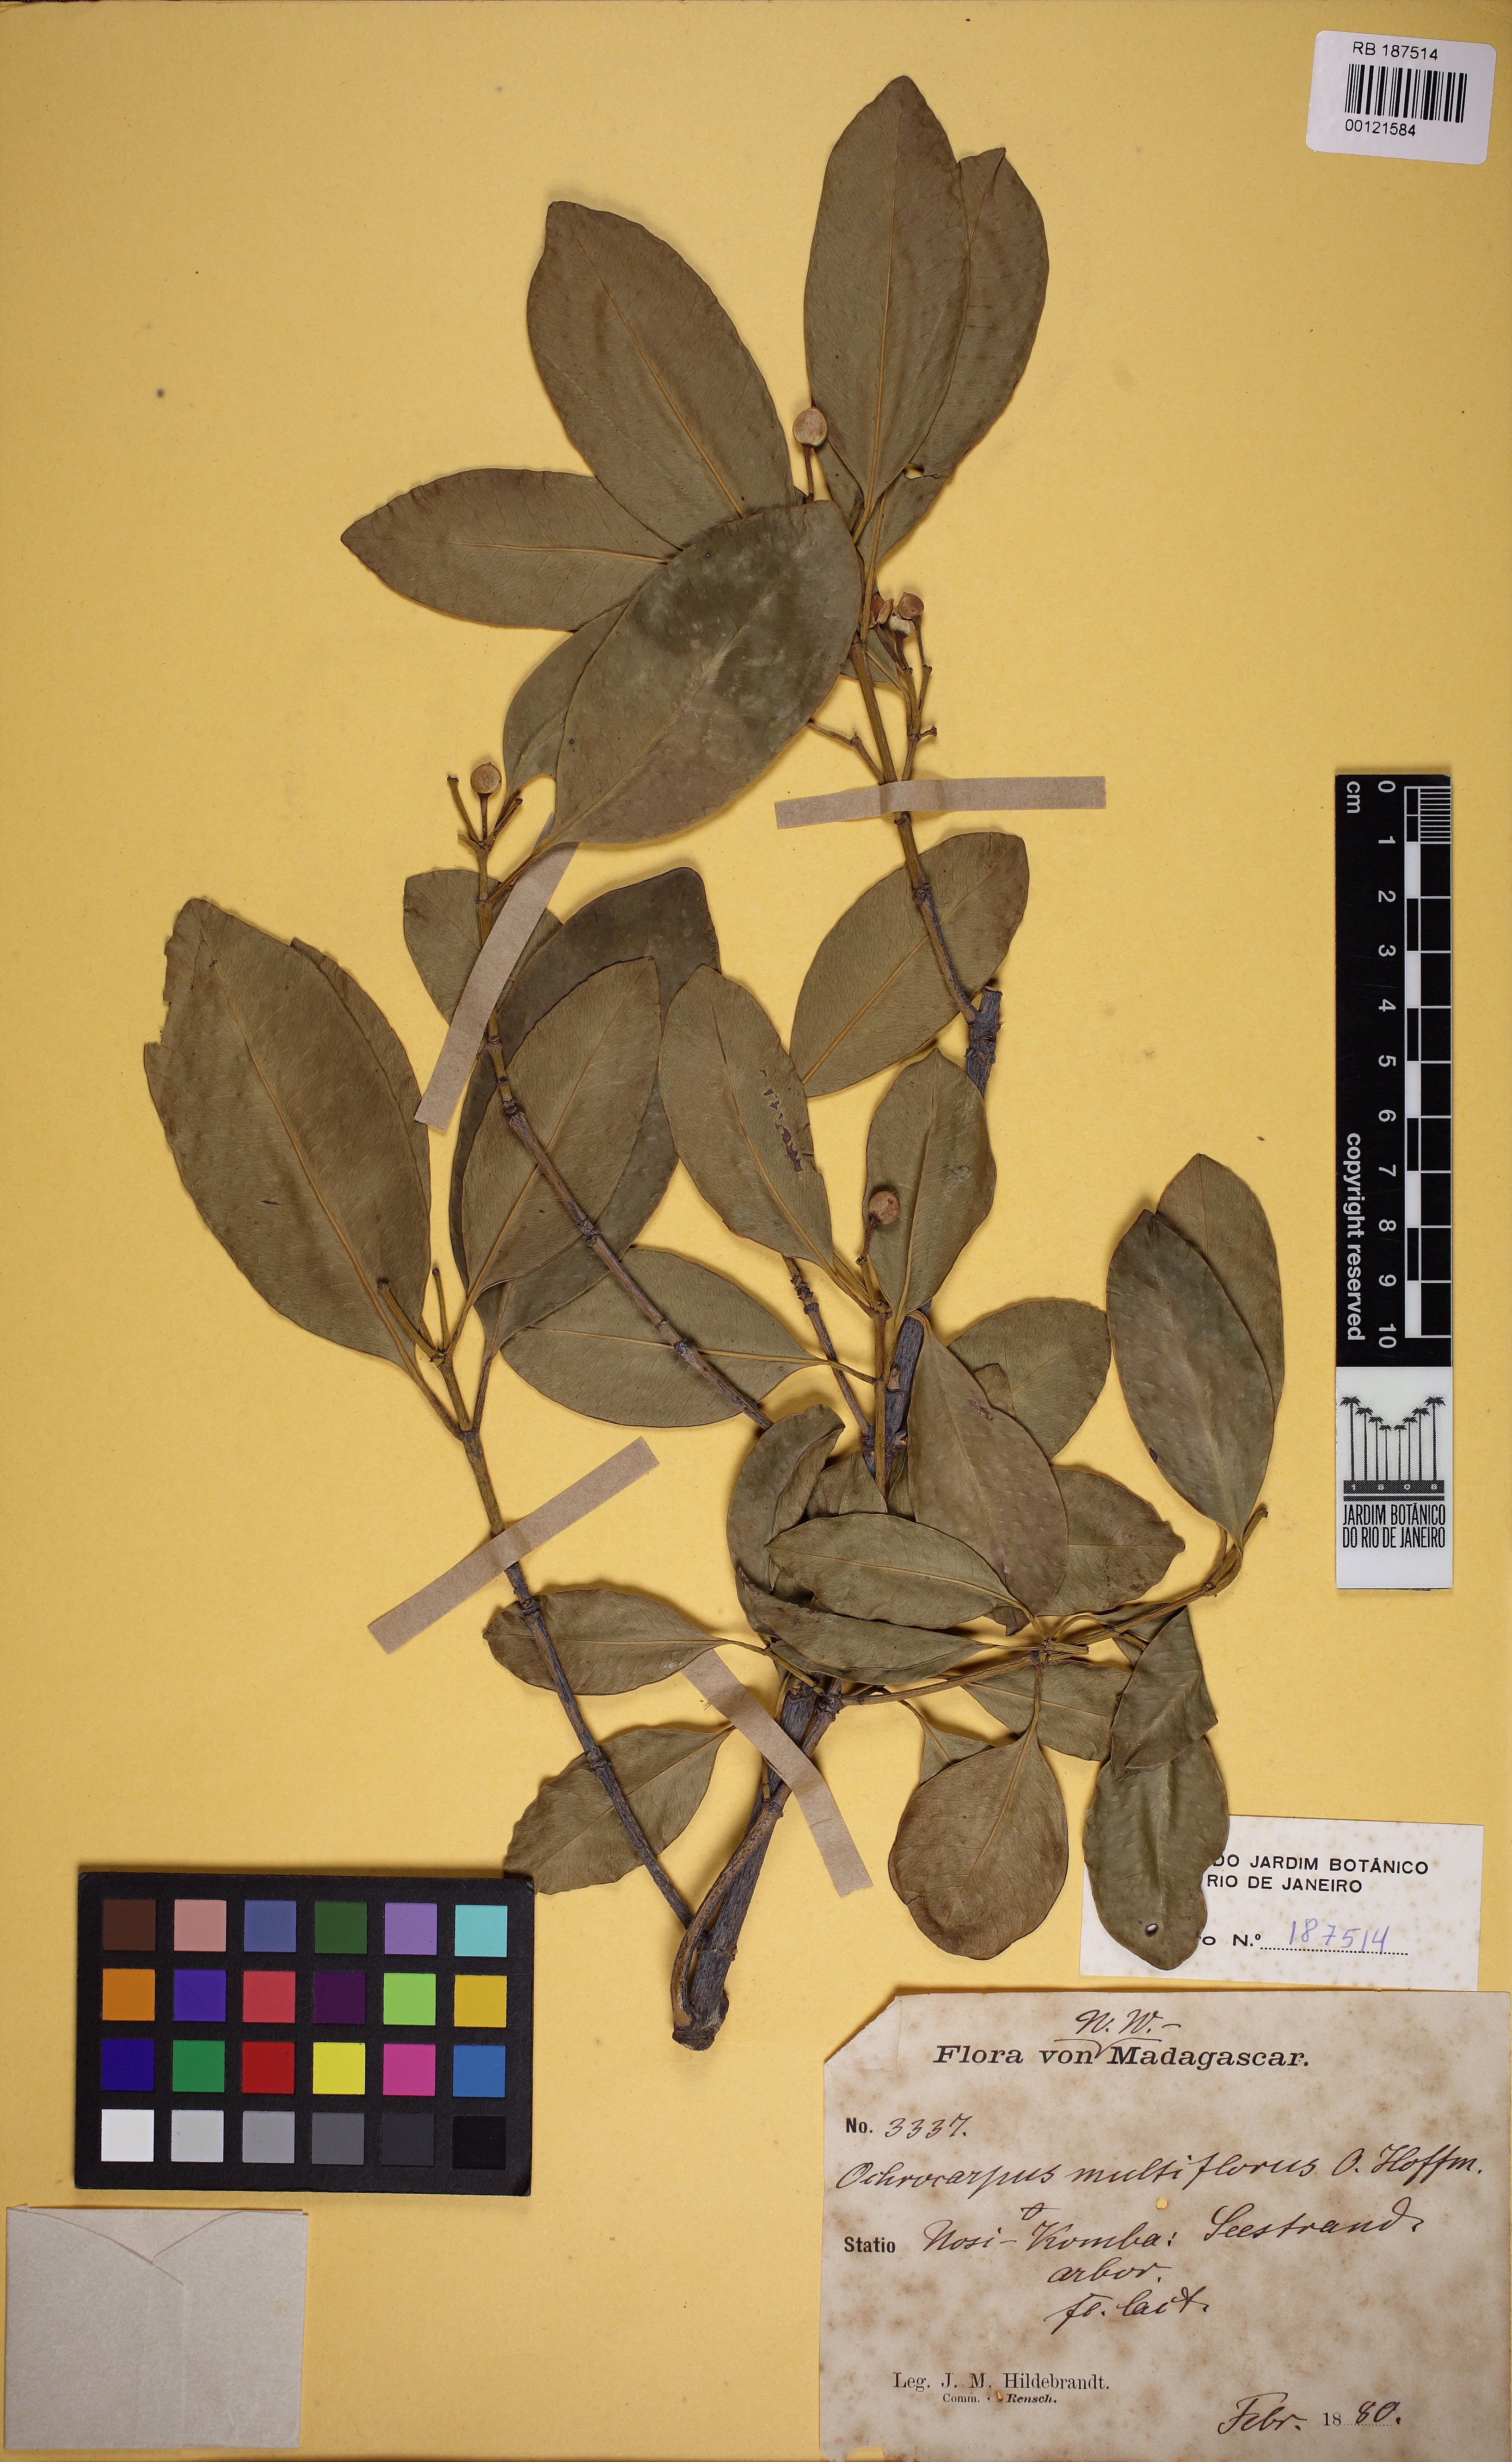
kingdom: Plantae
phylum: Tracheophyta
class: Magnoliopsida
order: Malpighiales
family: Clusiaceae
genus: Garcinia
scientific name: Garcinia evonymoides
